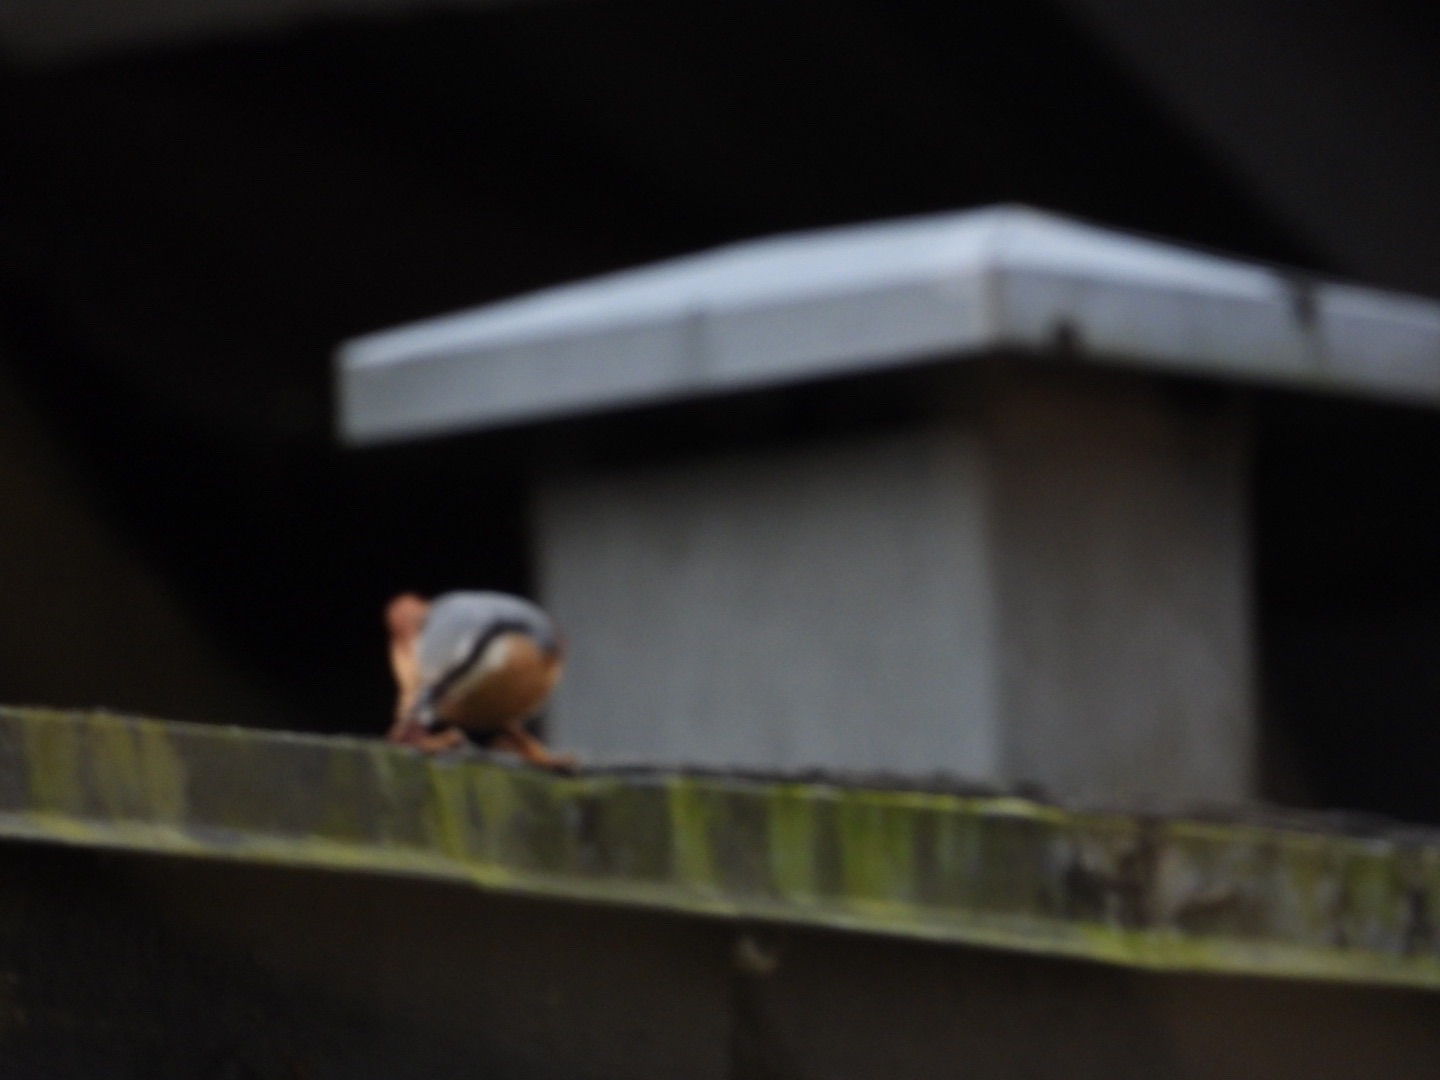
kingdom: Animalia
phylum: Chordata
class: Aves
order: Passeriformes
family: Sittidae
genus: Sitta
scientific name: Sitta europaea
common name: Mørkbuget spætmejse
